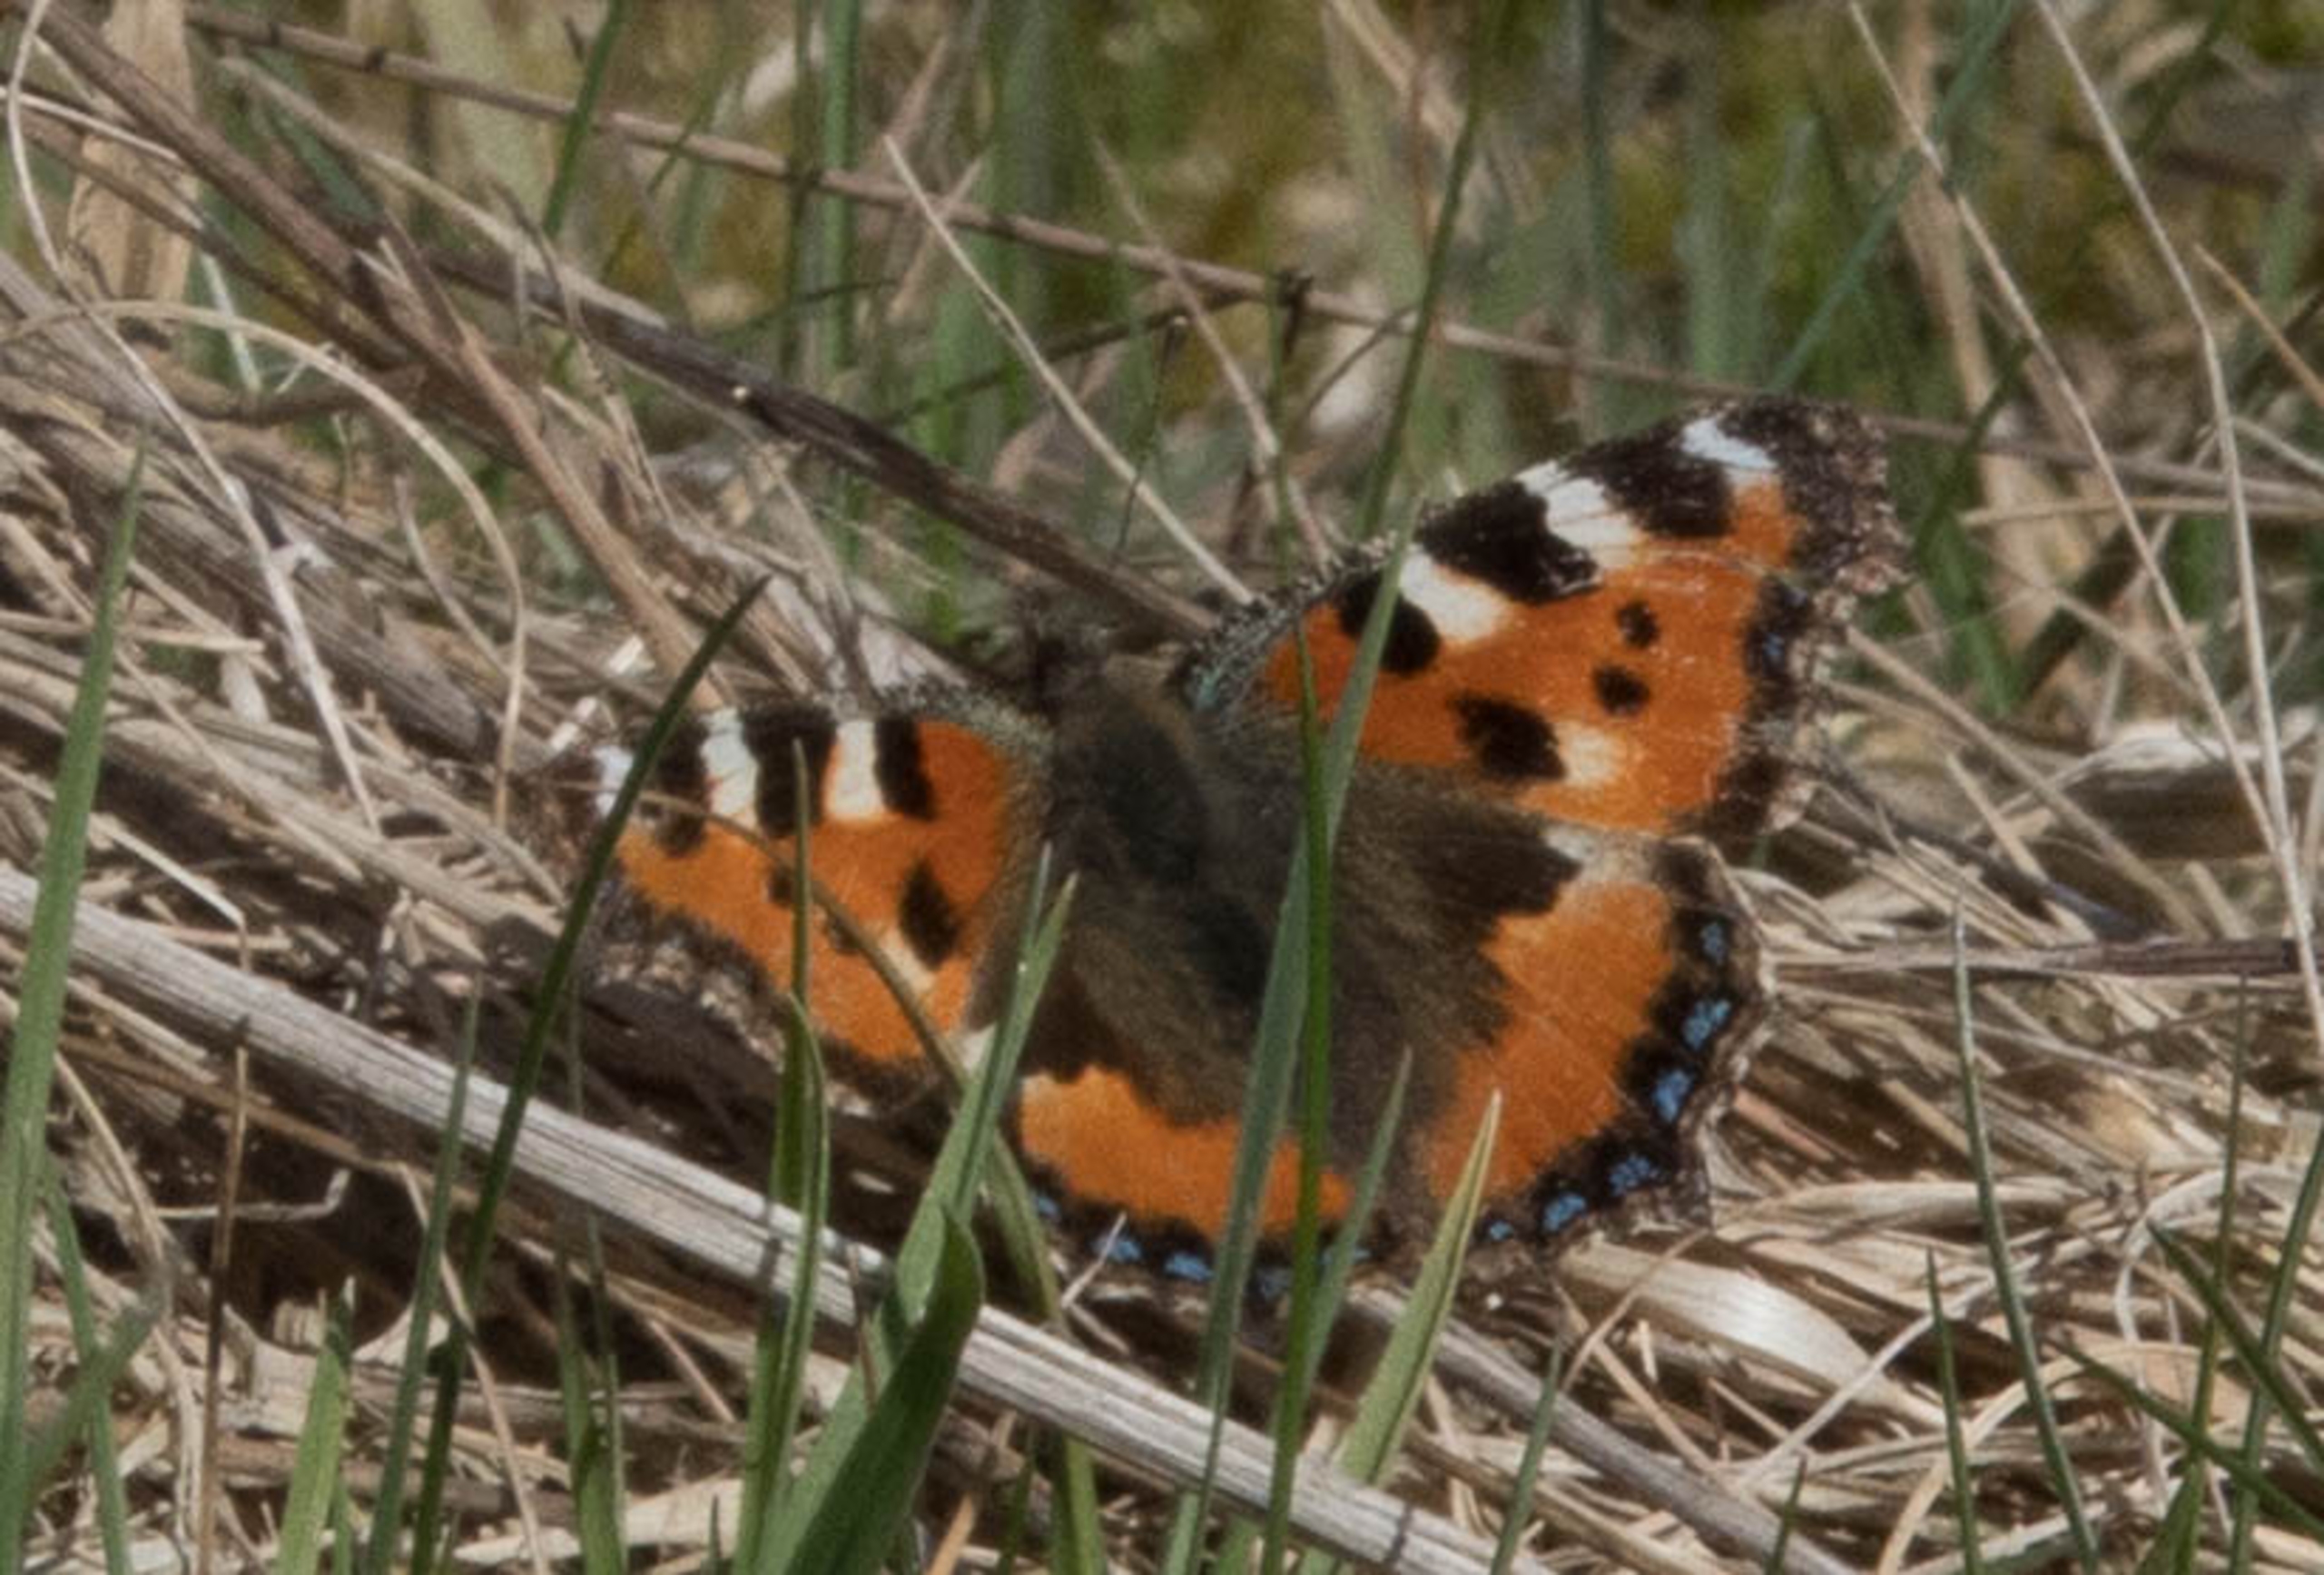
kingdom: Animalia
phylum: Arthropoda
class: Insecta
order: Lepidoptera
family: Nymphalidae
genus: Aglais
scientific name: Aglais urticae
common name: Nældens takvinge
